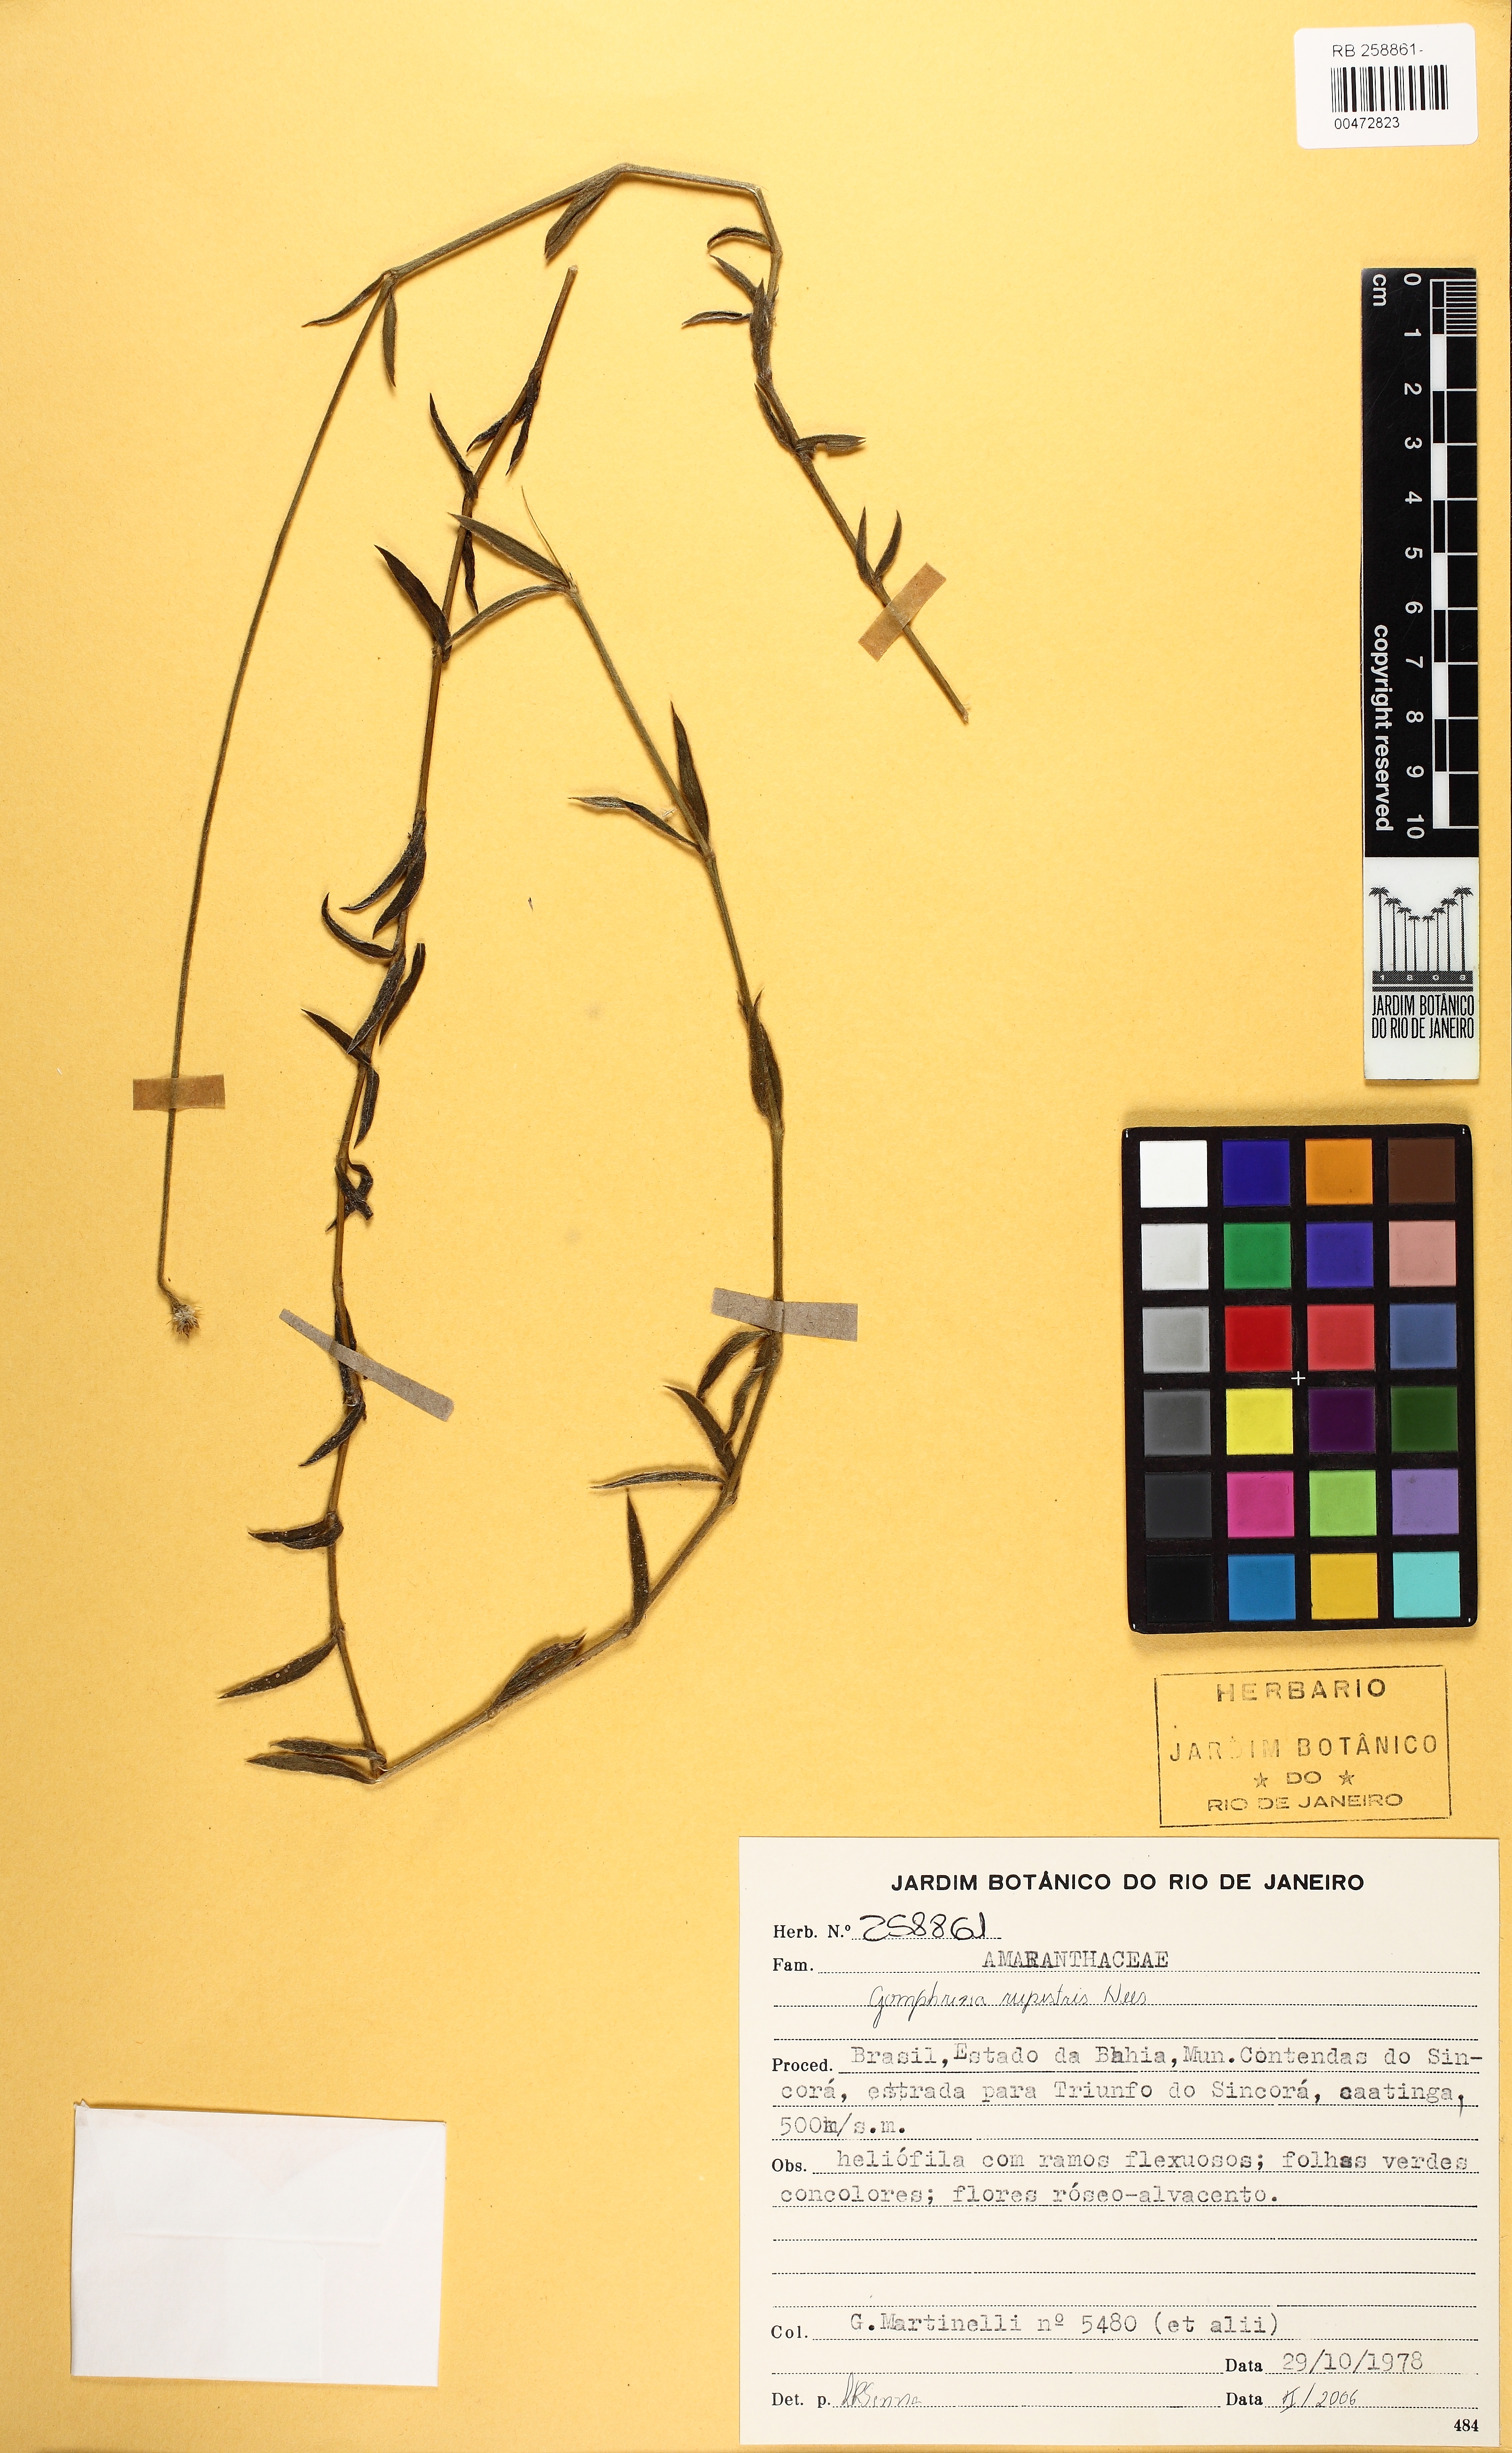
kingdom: Plantae
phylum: Tracheophyta
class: Magnoliopsida
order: Caryophyllales
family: Amaranthaceae
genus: Gomphrena
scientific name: Gomphrena rupestris
